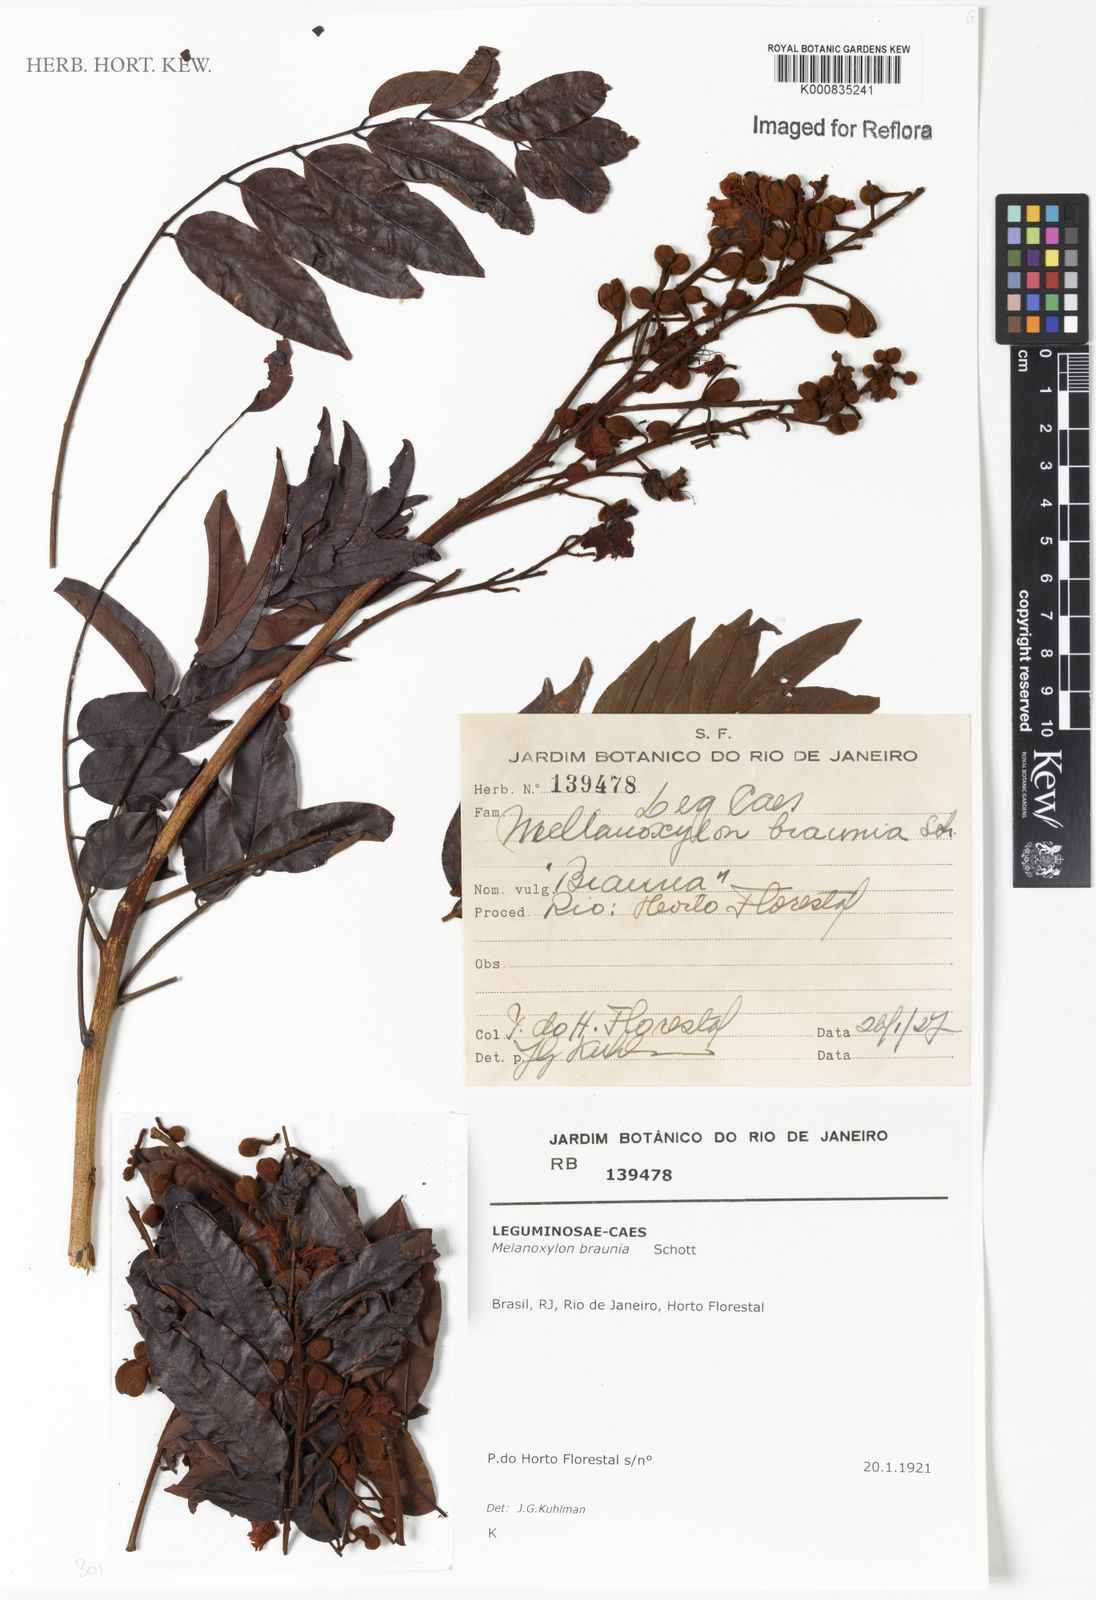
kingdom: Plantae
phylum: Tracheophyta
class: Magnoliopsida
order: Fabales
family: Fabaceae
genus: Melanoxylum
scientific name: Melanoxylum brauna
